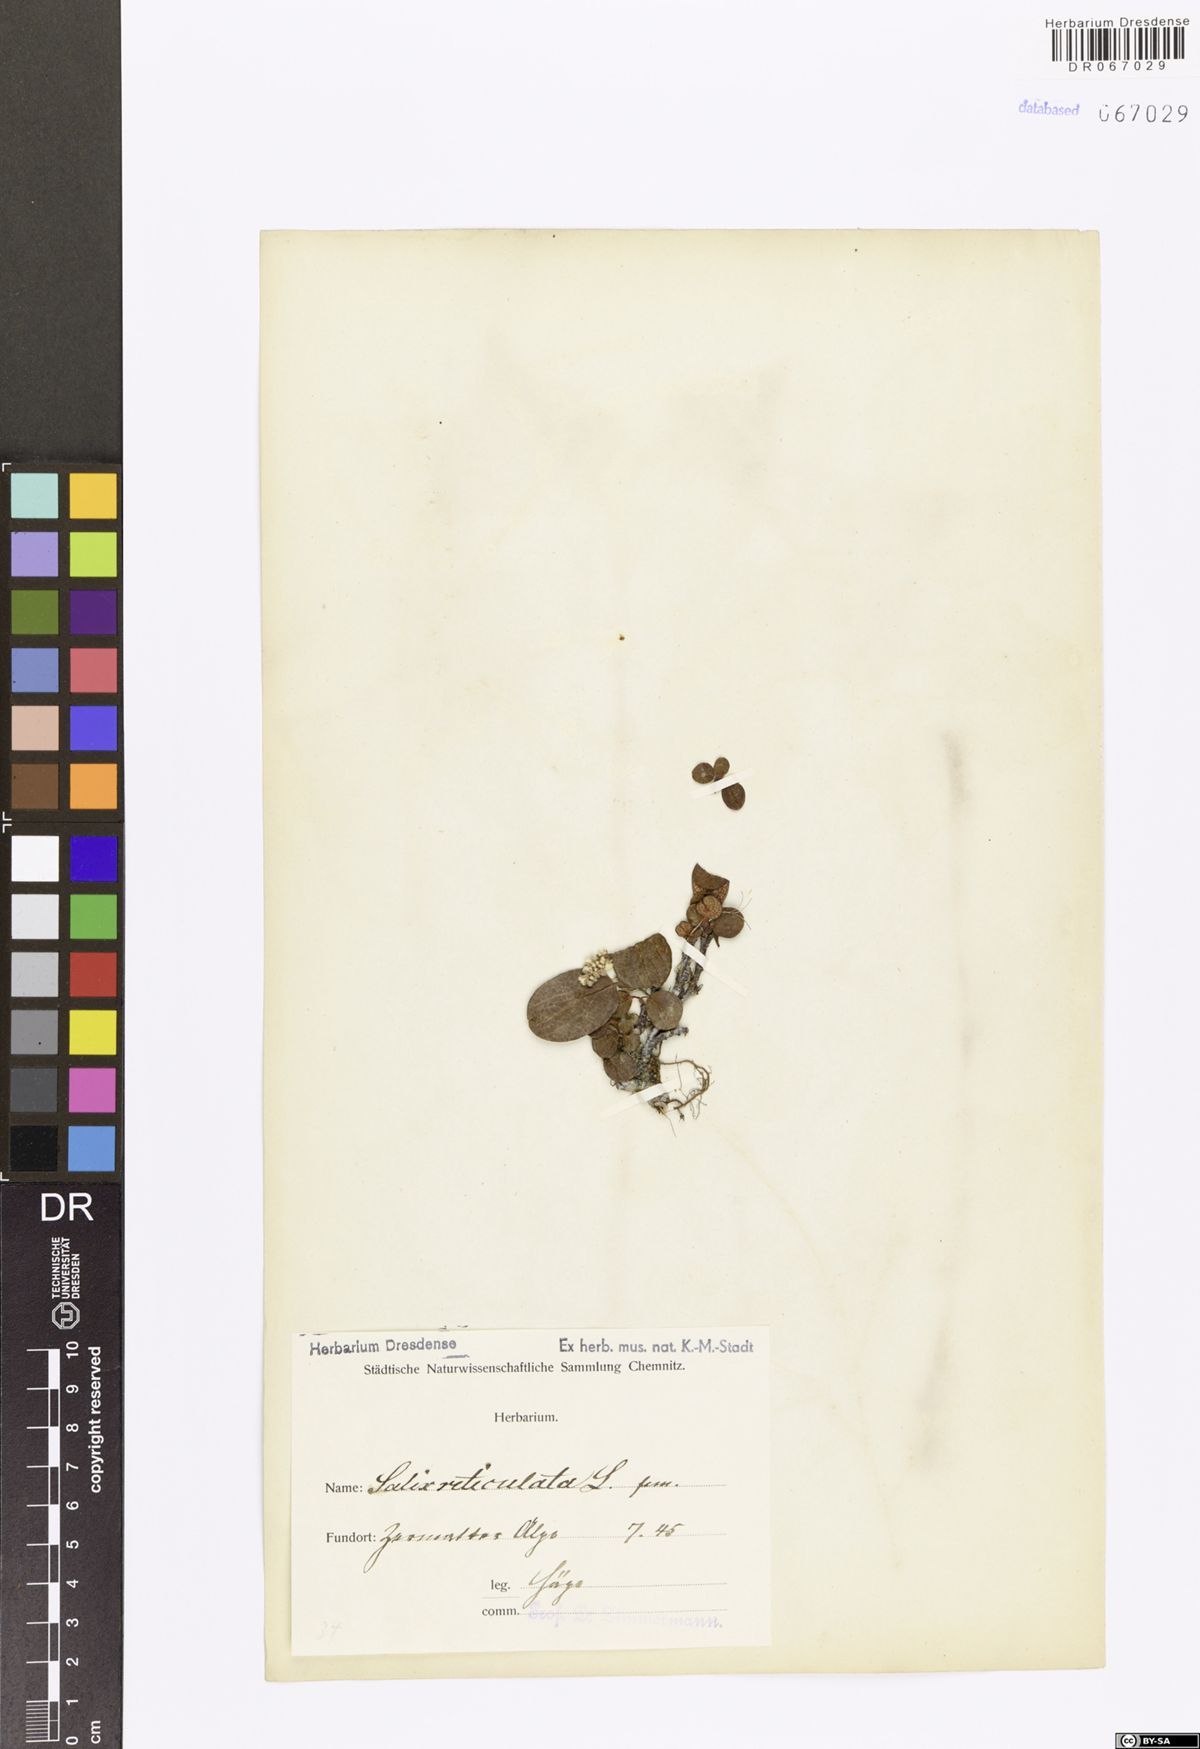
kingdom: Plantae
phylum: Tracheophyta
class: Magnoliopsida
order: Malpighiales
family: Salicaceae
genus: Salix
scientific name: Salix reticulata
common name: Net-leaved willow
